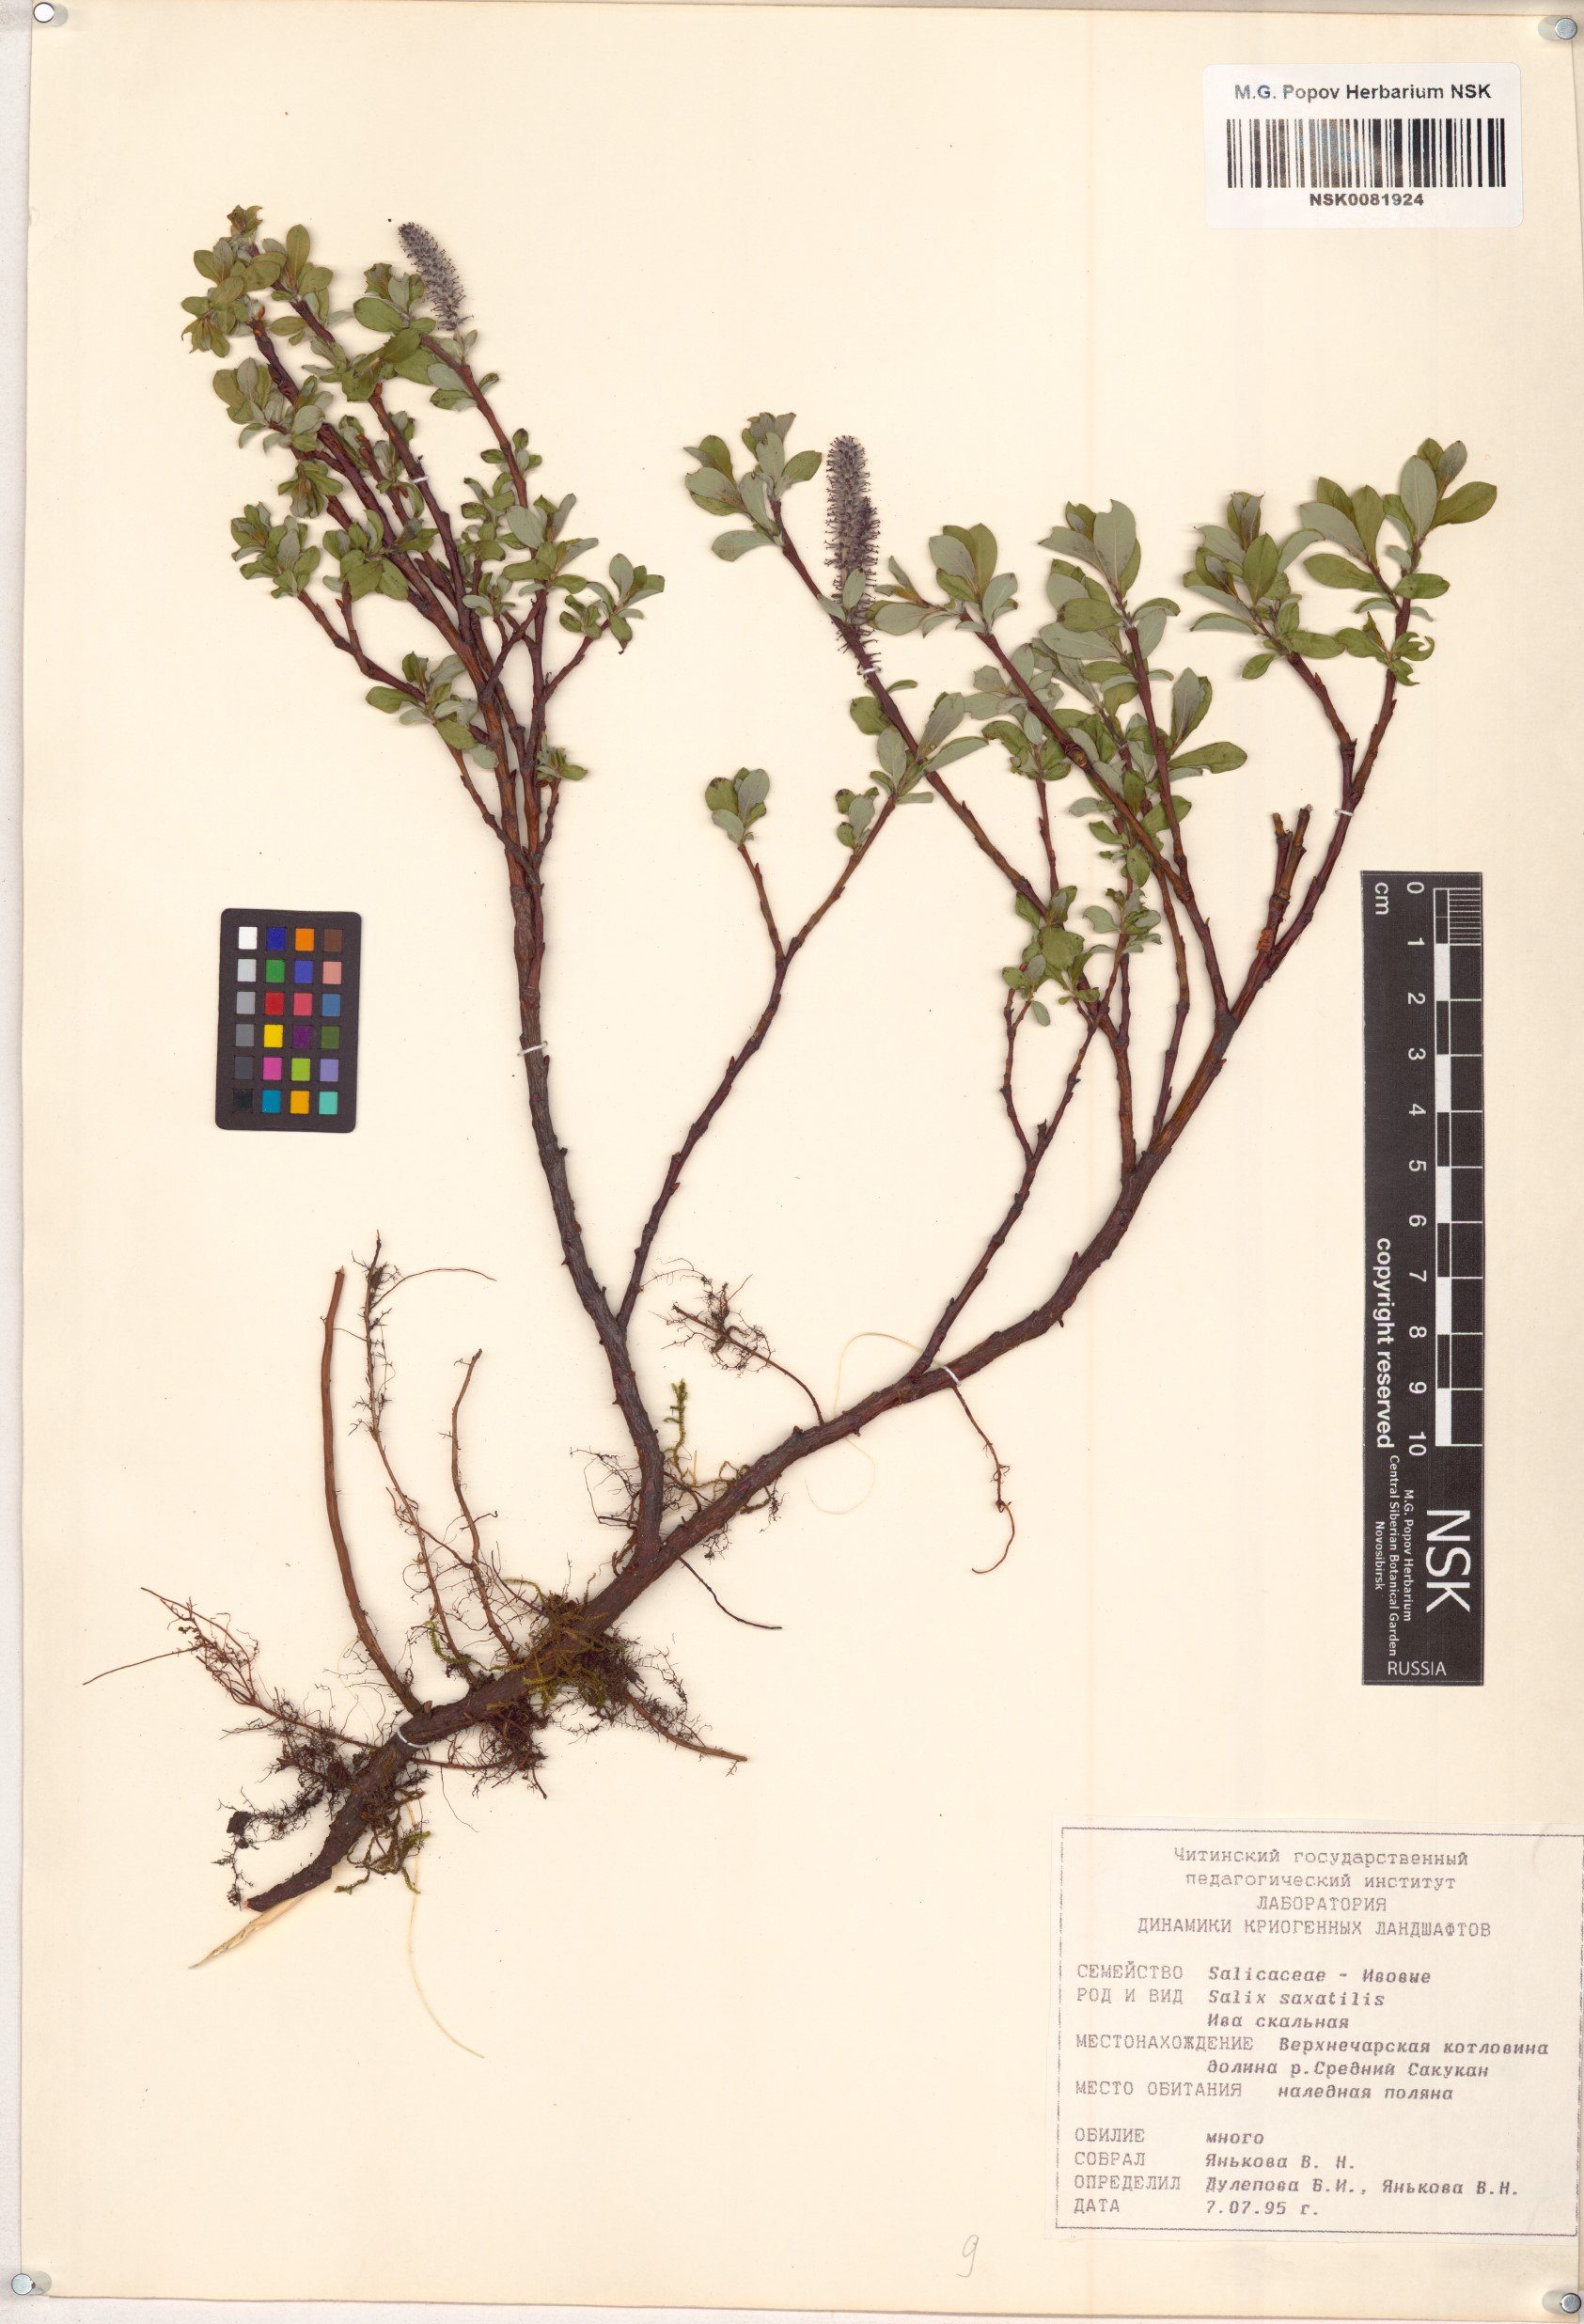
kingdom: Plantae
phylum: Tracheophyta
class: Magnoliopsida
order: Malpighiales
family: Salicaceae
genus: Salix
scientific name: Salix saxatilis
